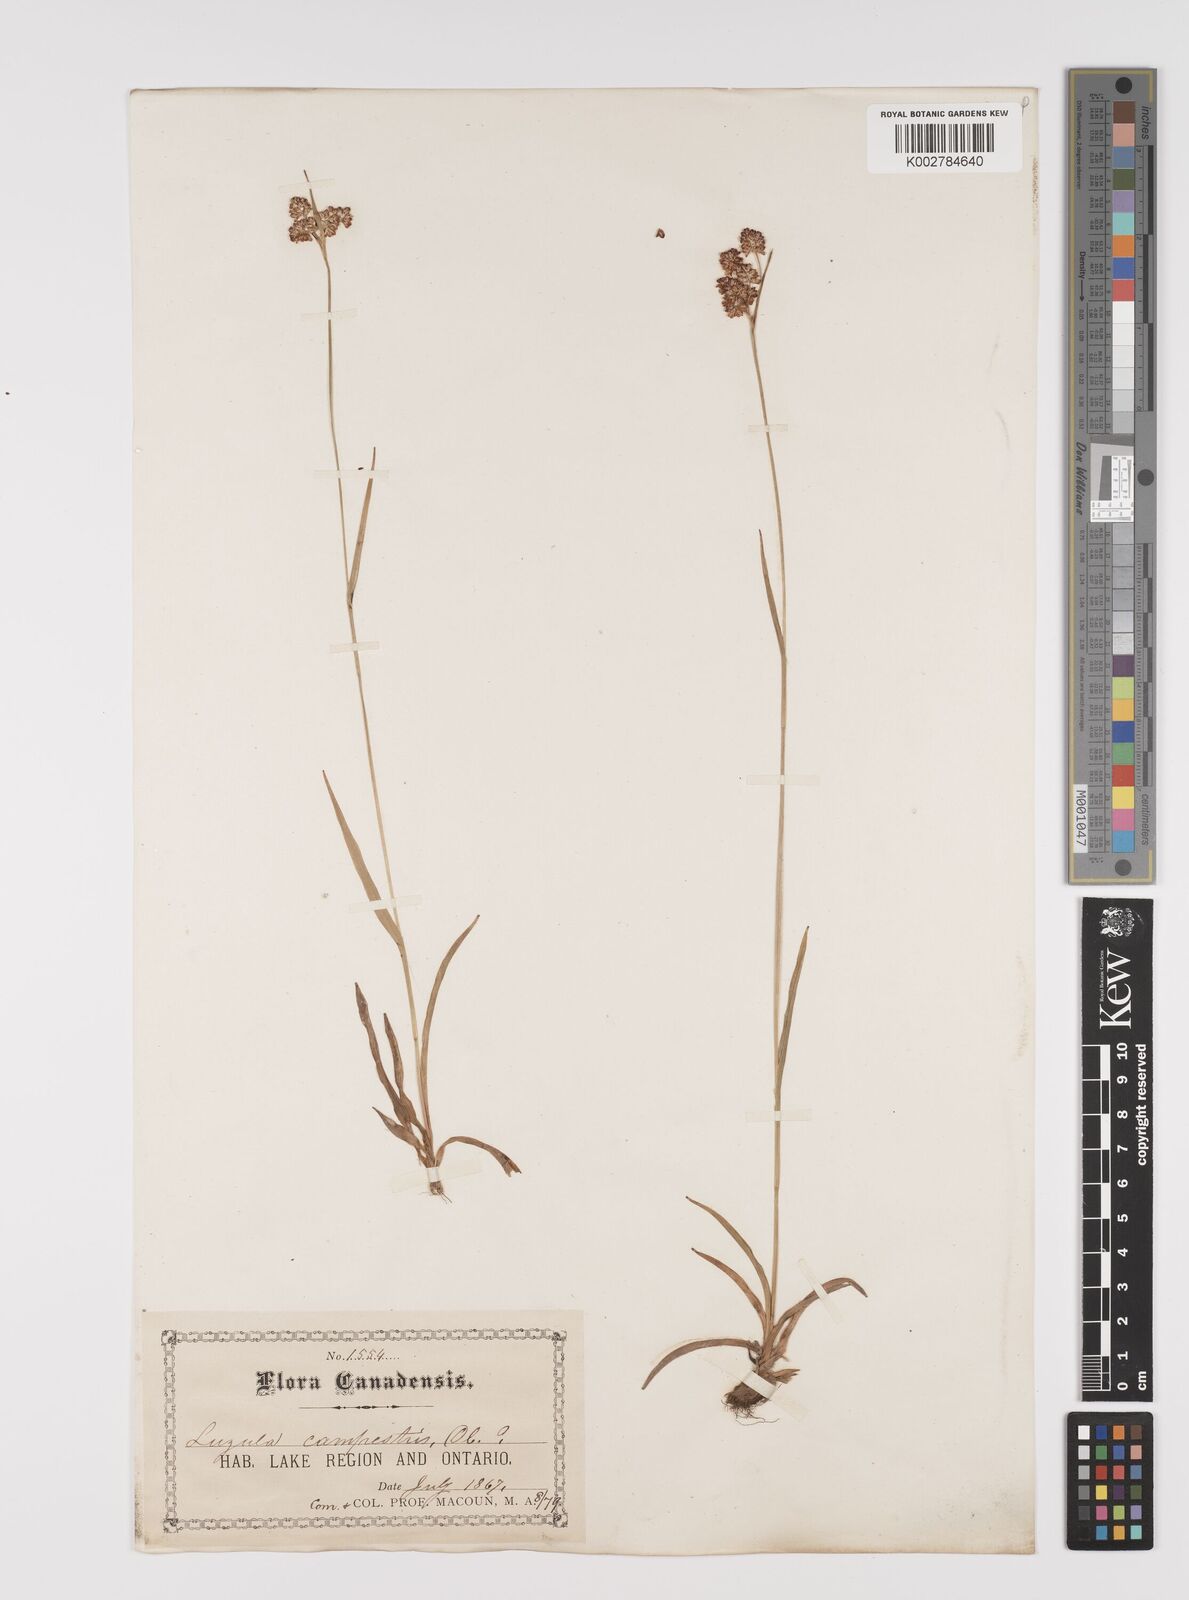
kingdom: Plantae
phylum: Tracheophyta
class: Liliopsida
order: Poales
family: Juncaceae
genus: Luzula
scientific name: Luzula campestris
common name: Field wood-rush
